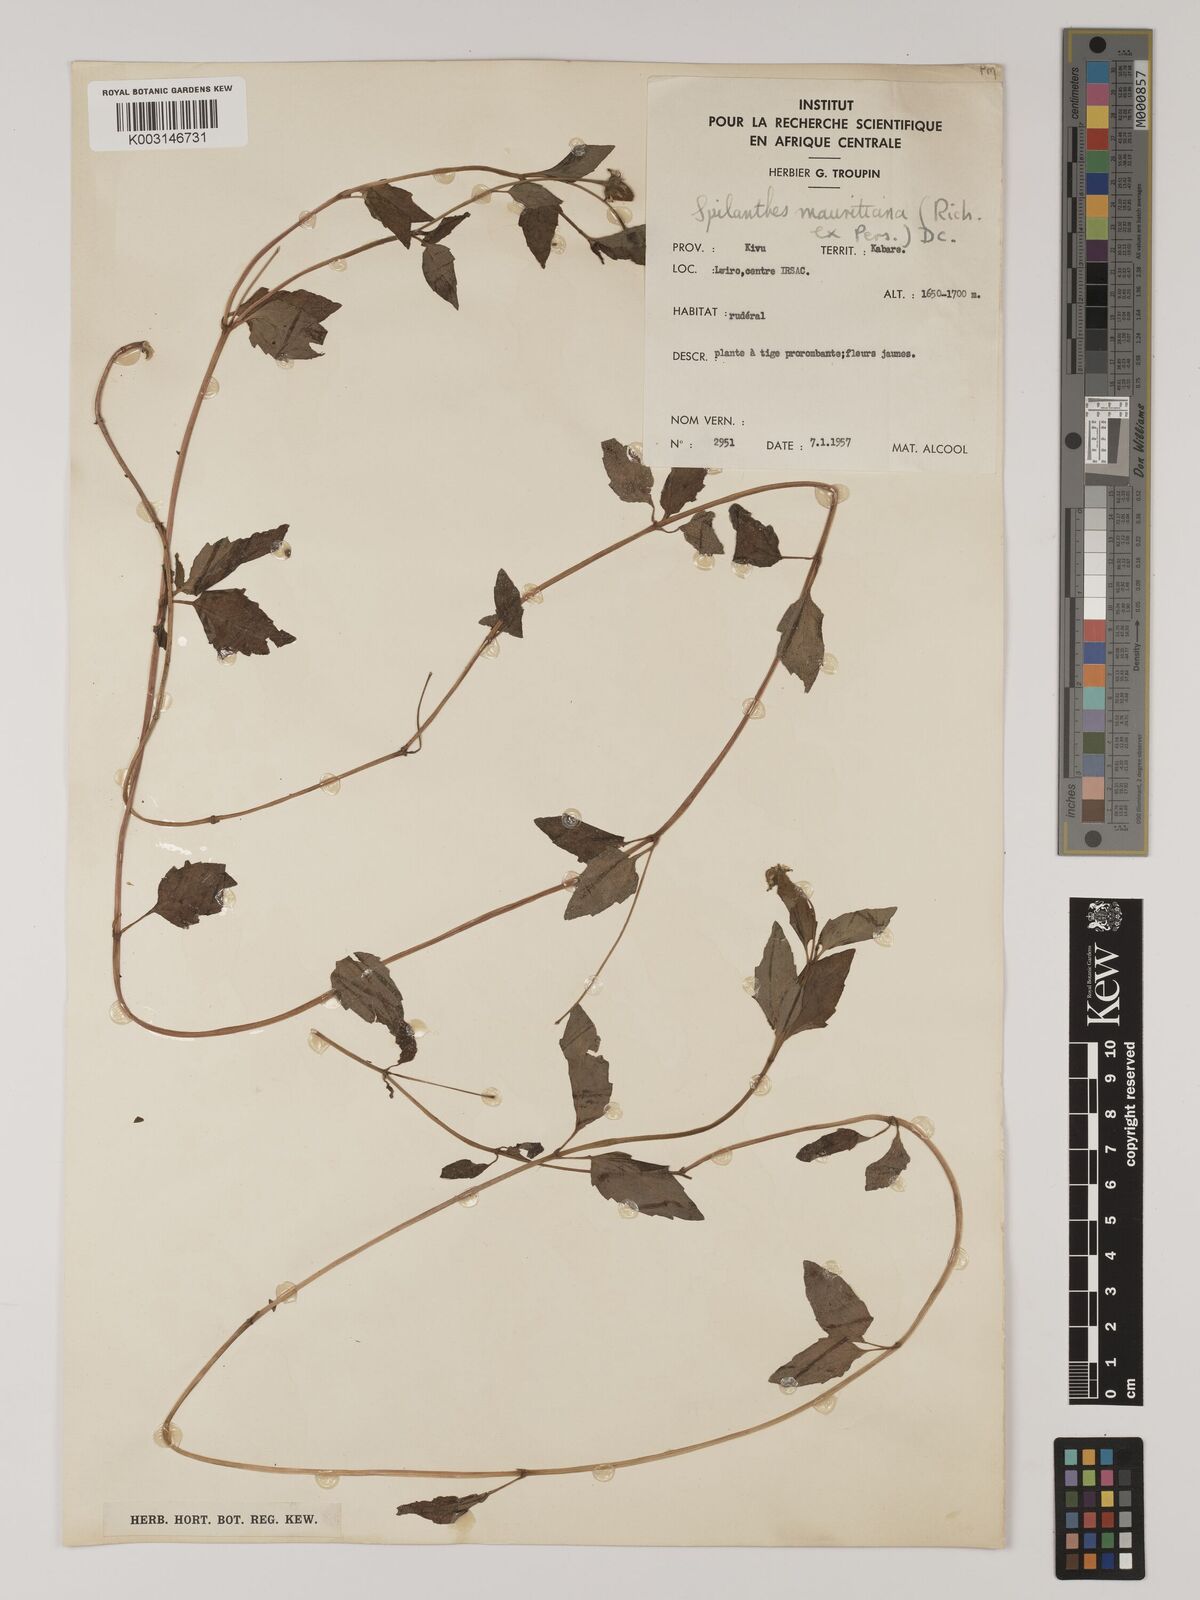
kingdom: Plantae
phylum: Tracheophyta
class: Magnoliopsida
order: Asterales
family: Asteraceae
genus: Blainvillea
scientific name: Blainvillea acmella
